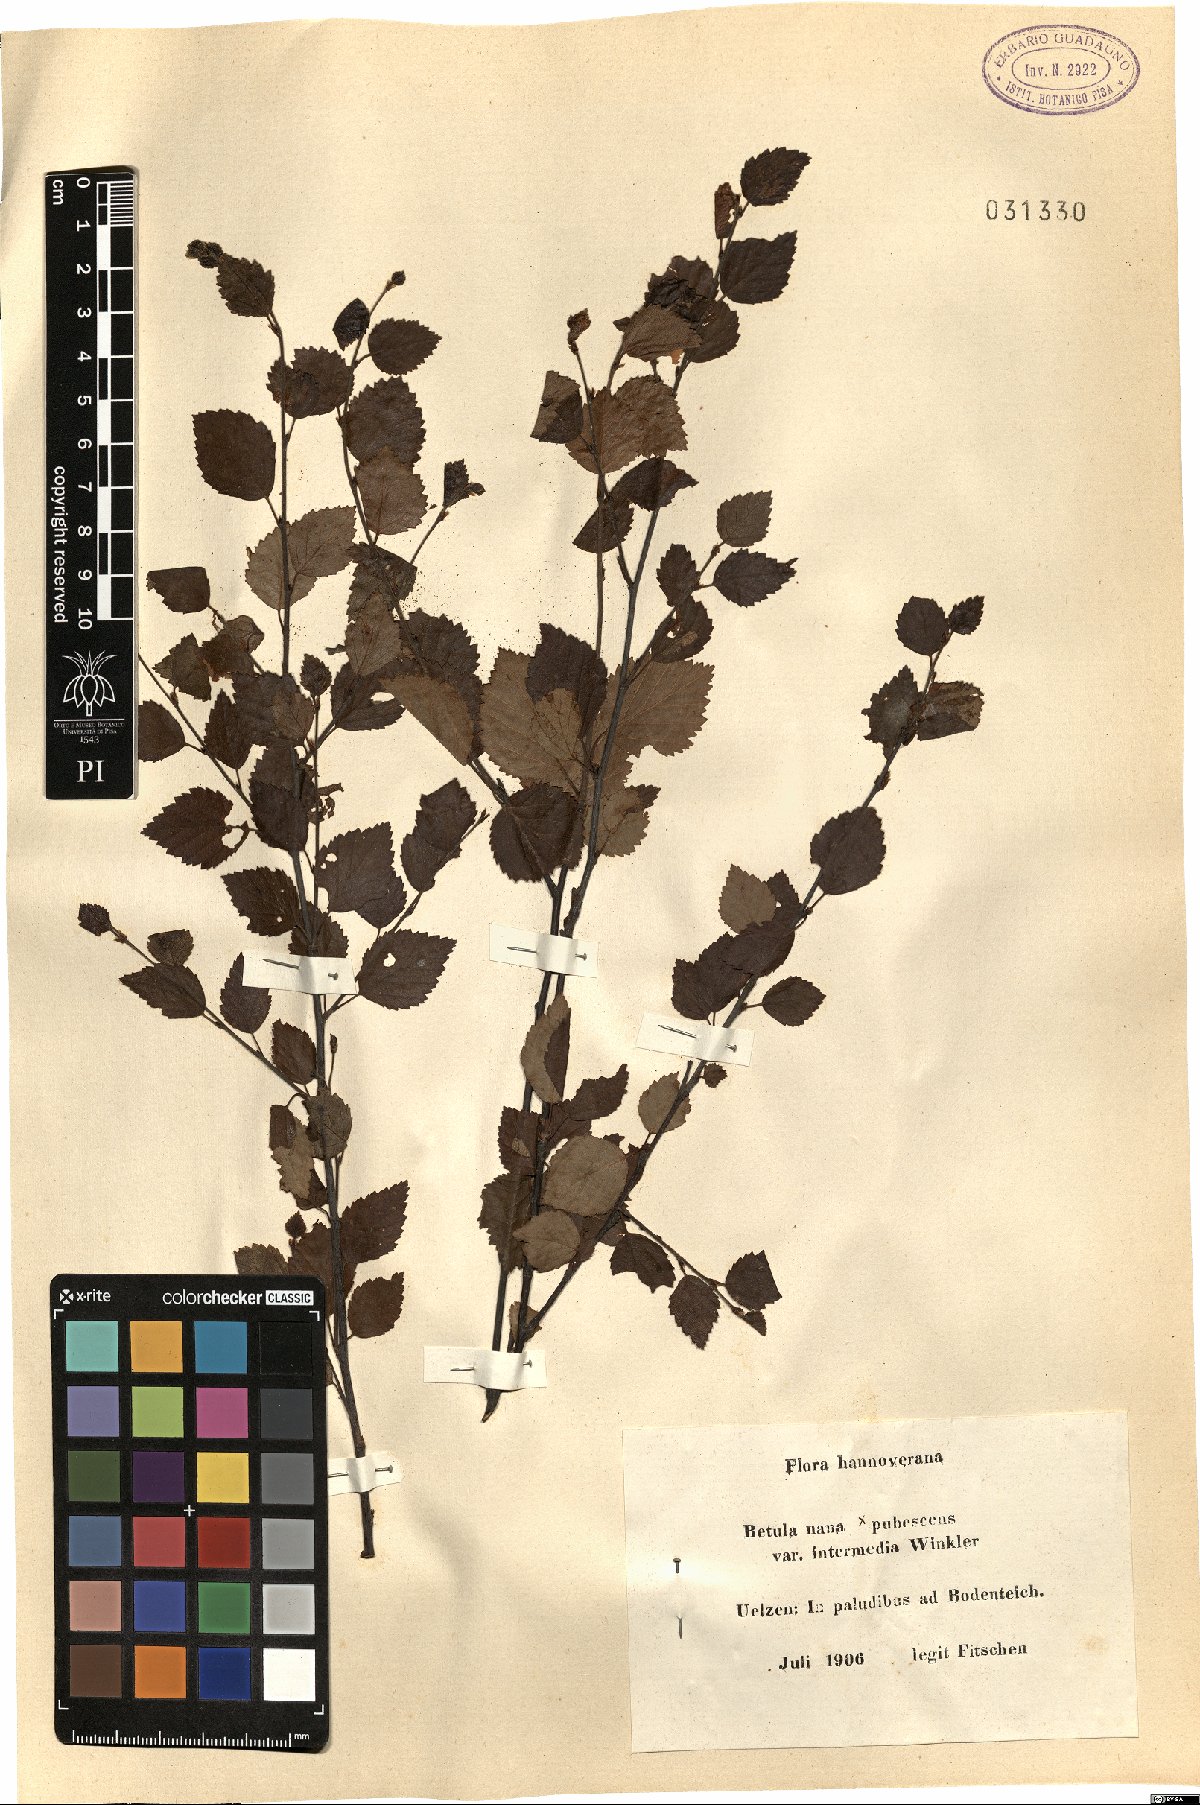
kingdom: Plantae
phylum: Tracheophyta
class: Magnoliopsida
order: Fagales
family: Betulaceae
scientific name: Betulaceae
